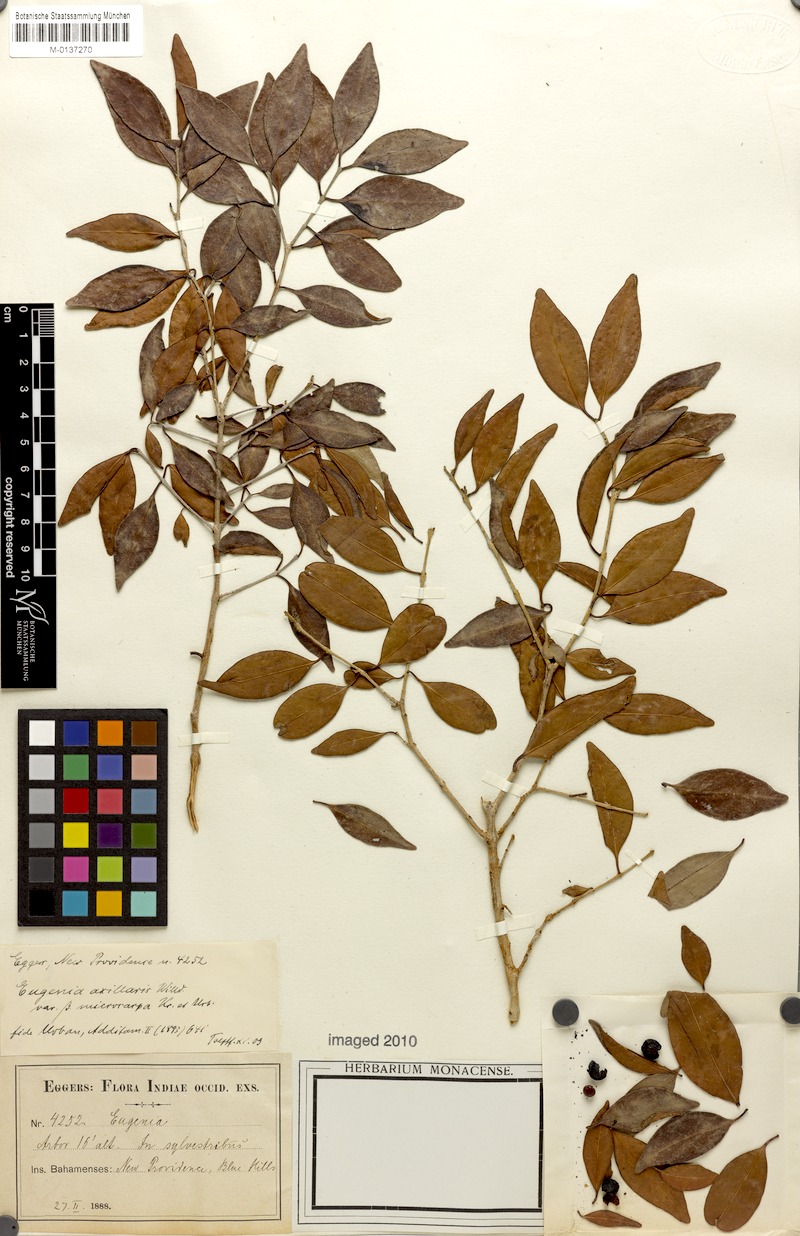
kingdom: Plantae
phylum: Tracheophyta
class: Magnoliopsida
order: Myrtales
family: Myrtaceae
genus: Eugenia
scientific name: Eugenia axillaris
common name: Choaky berry
